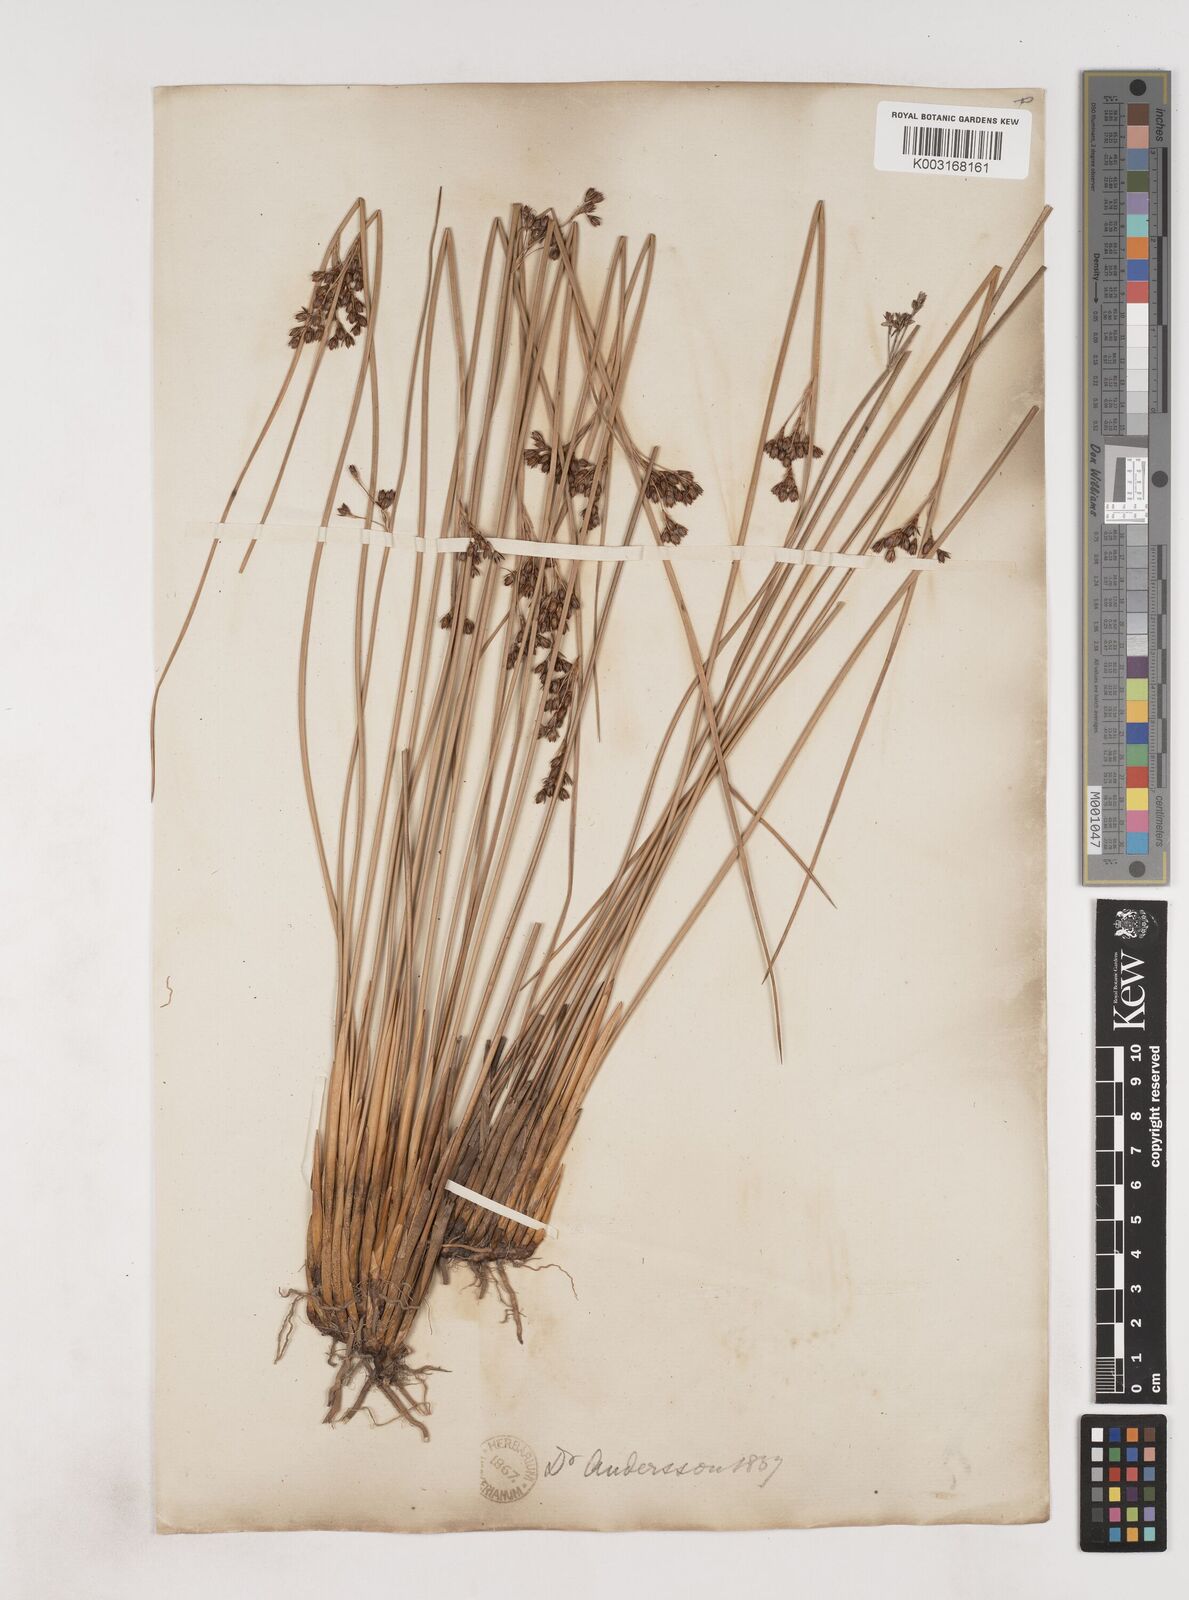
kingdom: Plantae
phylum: Tracheophyta
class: Liliopsida
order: Poales
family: Juncaceae
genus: Juncus
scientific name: Juncus balticus
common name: Baltic rush
